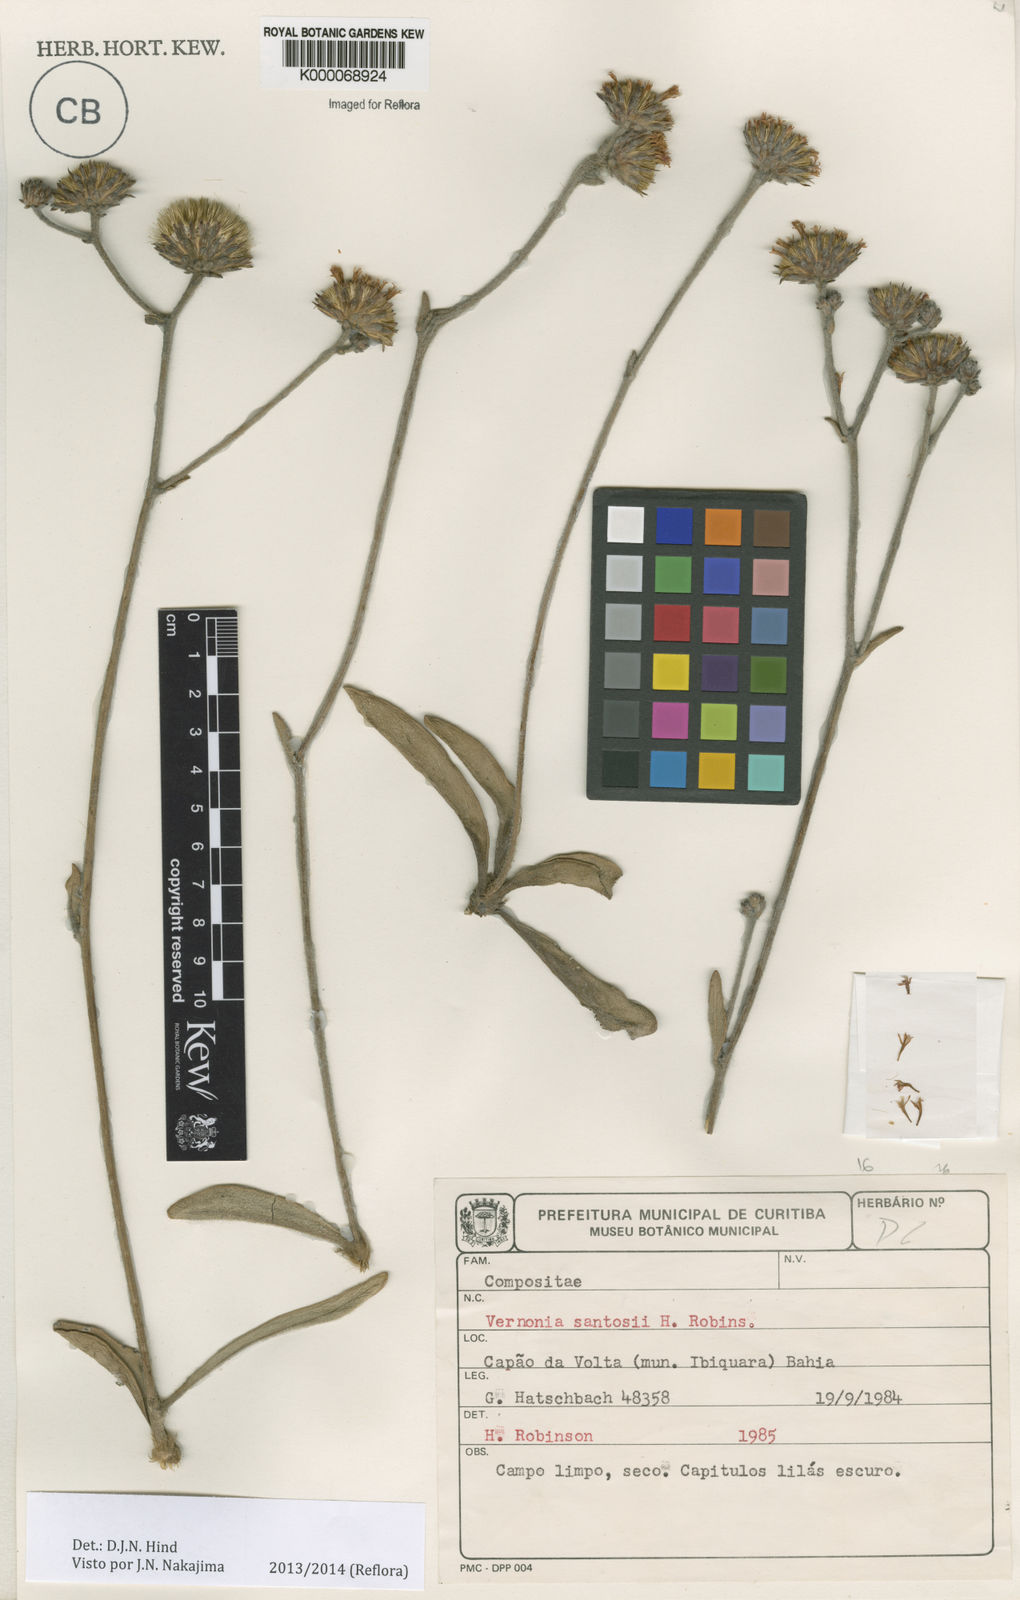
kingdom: Plantae
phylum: Tracheophyta
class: Magnoliopsida
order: Asterales
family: Asteraceae
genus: Lessingianthus
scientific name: Lessingianthus santosii
